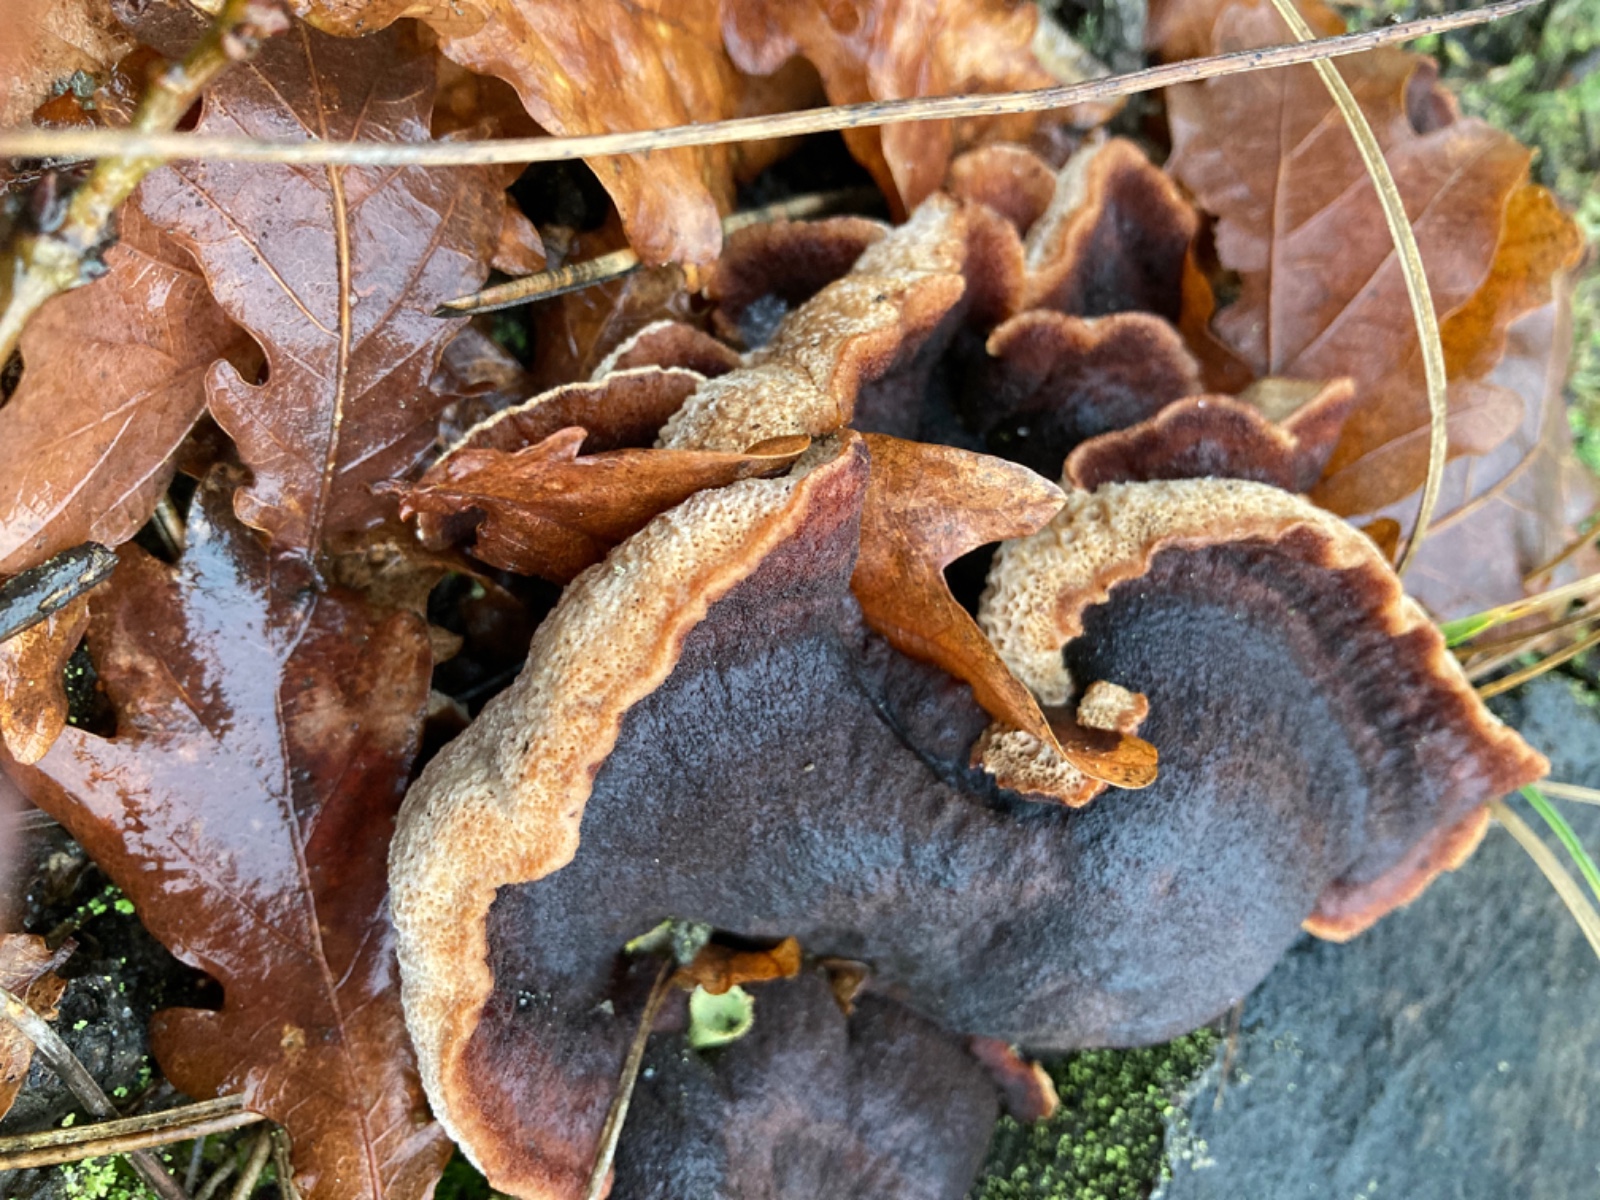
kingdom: Fungi
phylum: Basidiomycota
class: Agaricomycetes
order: Polyporales
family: Ischnodermataceae
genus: Ischnoderma
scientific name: Ischnoderma benzoinum
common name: gran-tjæreporesvamp
